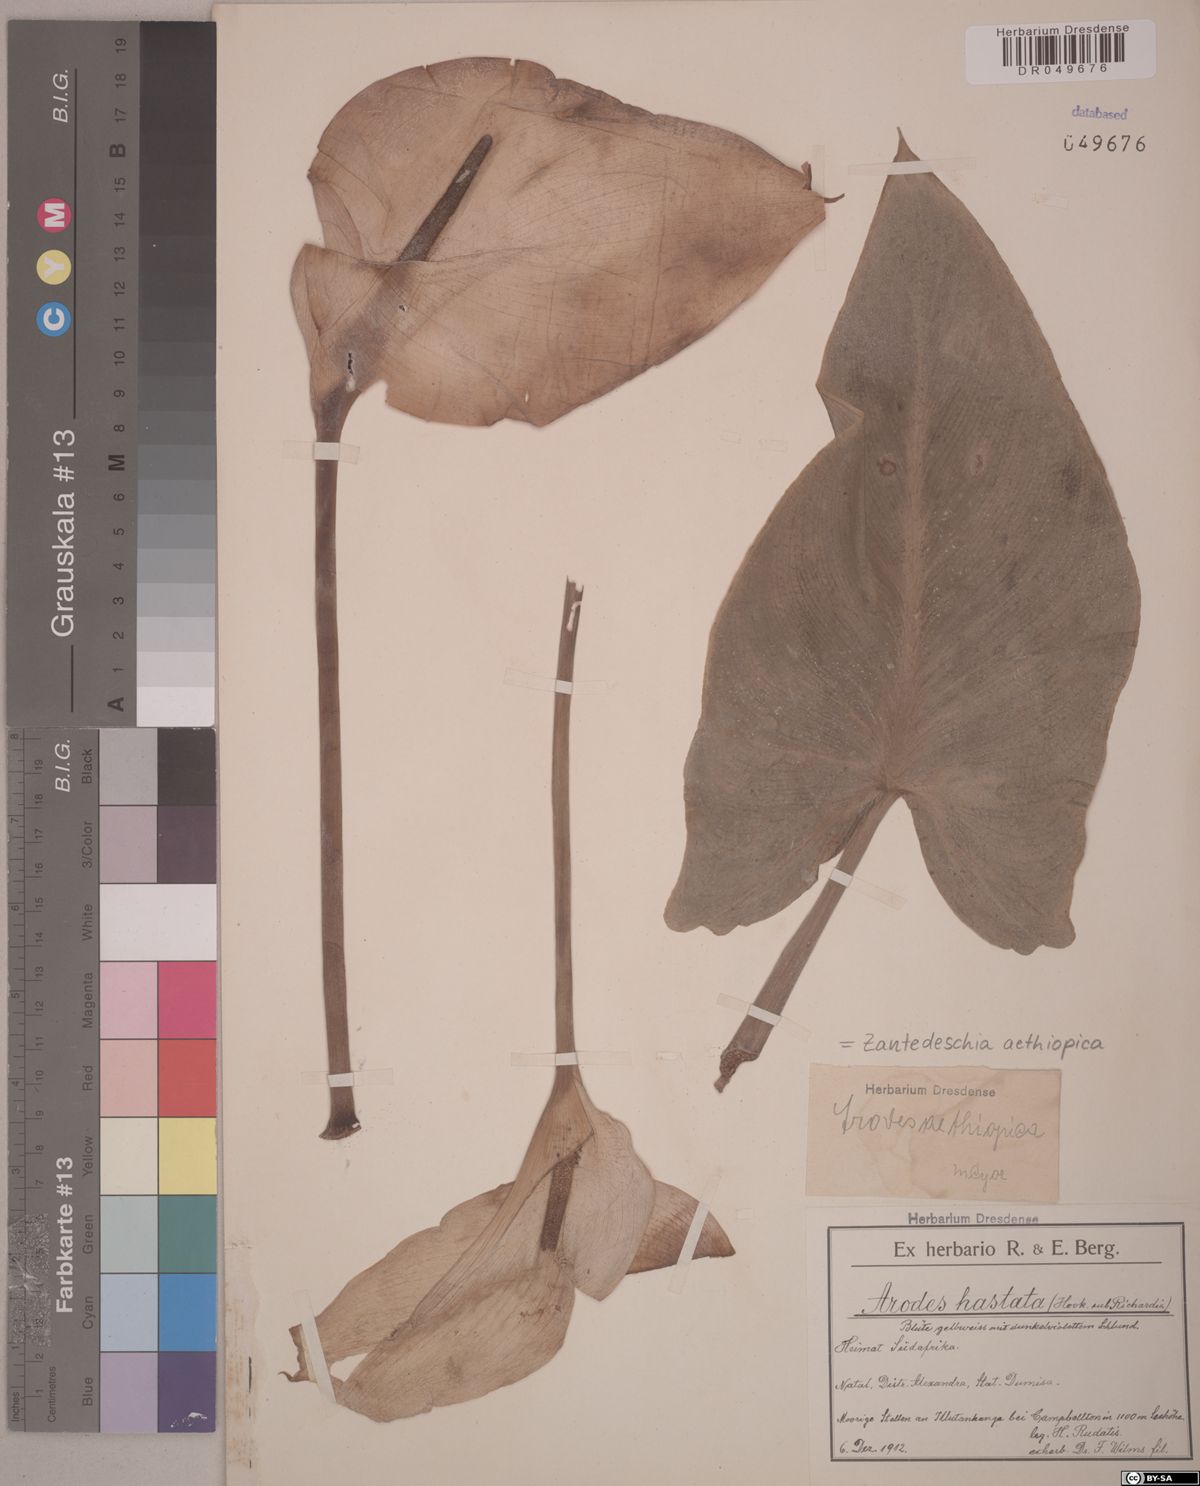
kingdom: Plantae
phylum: Tracheophyta
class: Liliopsida
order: Alismatales
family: Araceae
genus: Zantedeschia
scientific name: Zantedeschia aethiopica
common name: Altar-lily
